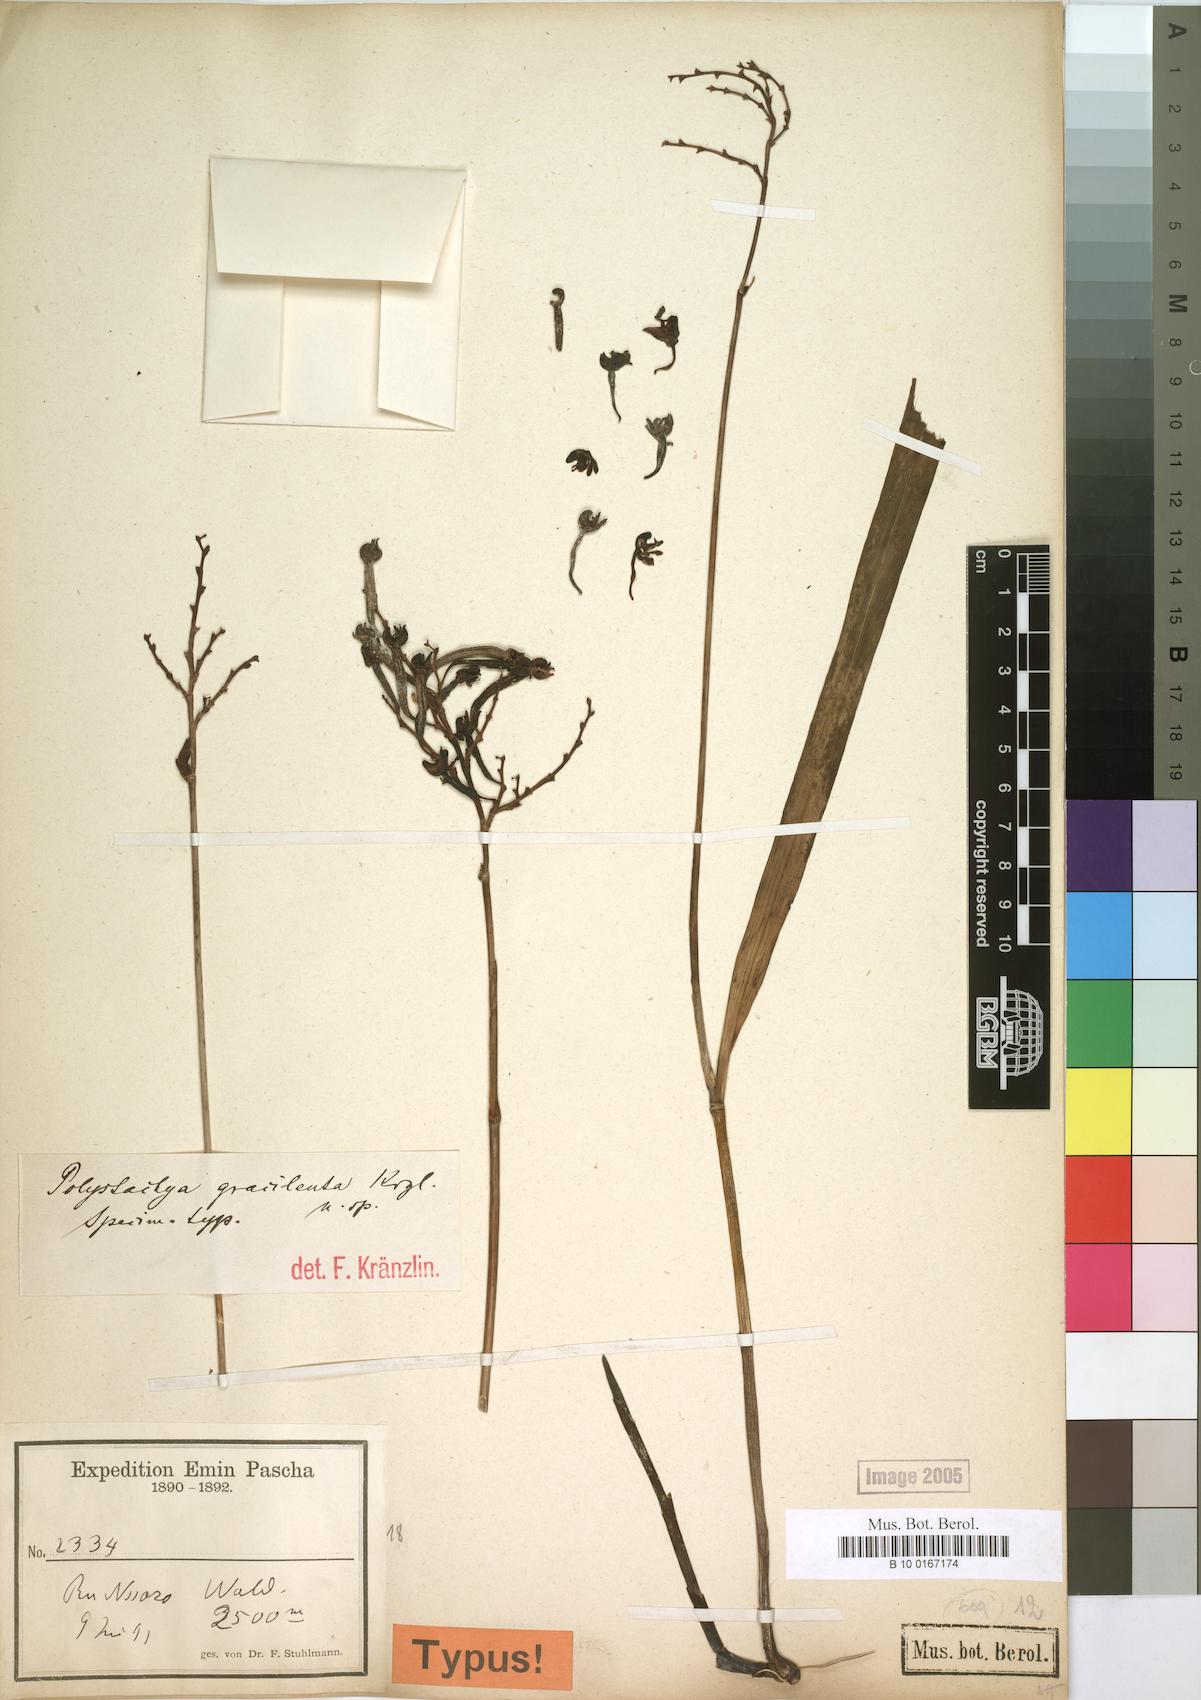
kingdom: Plantae
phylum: Tracheophyta
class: Liliopsida
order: Asparagales
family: Orchidaceae
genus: Polystachya
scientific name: Polystachya gracilenta
